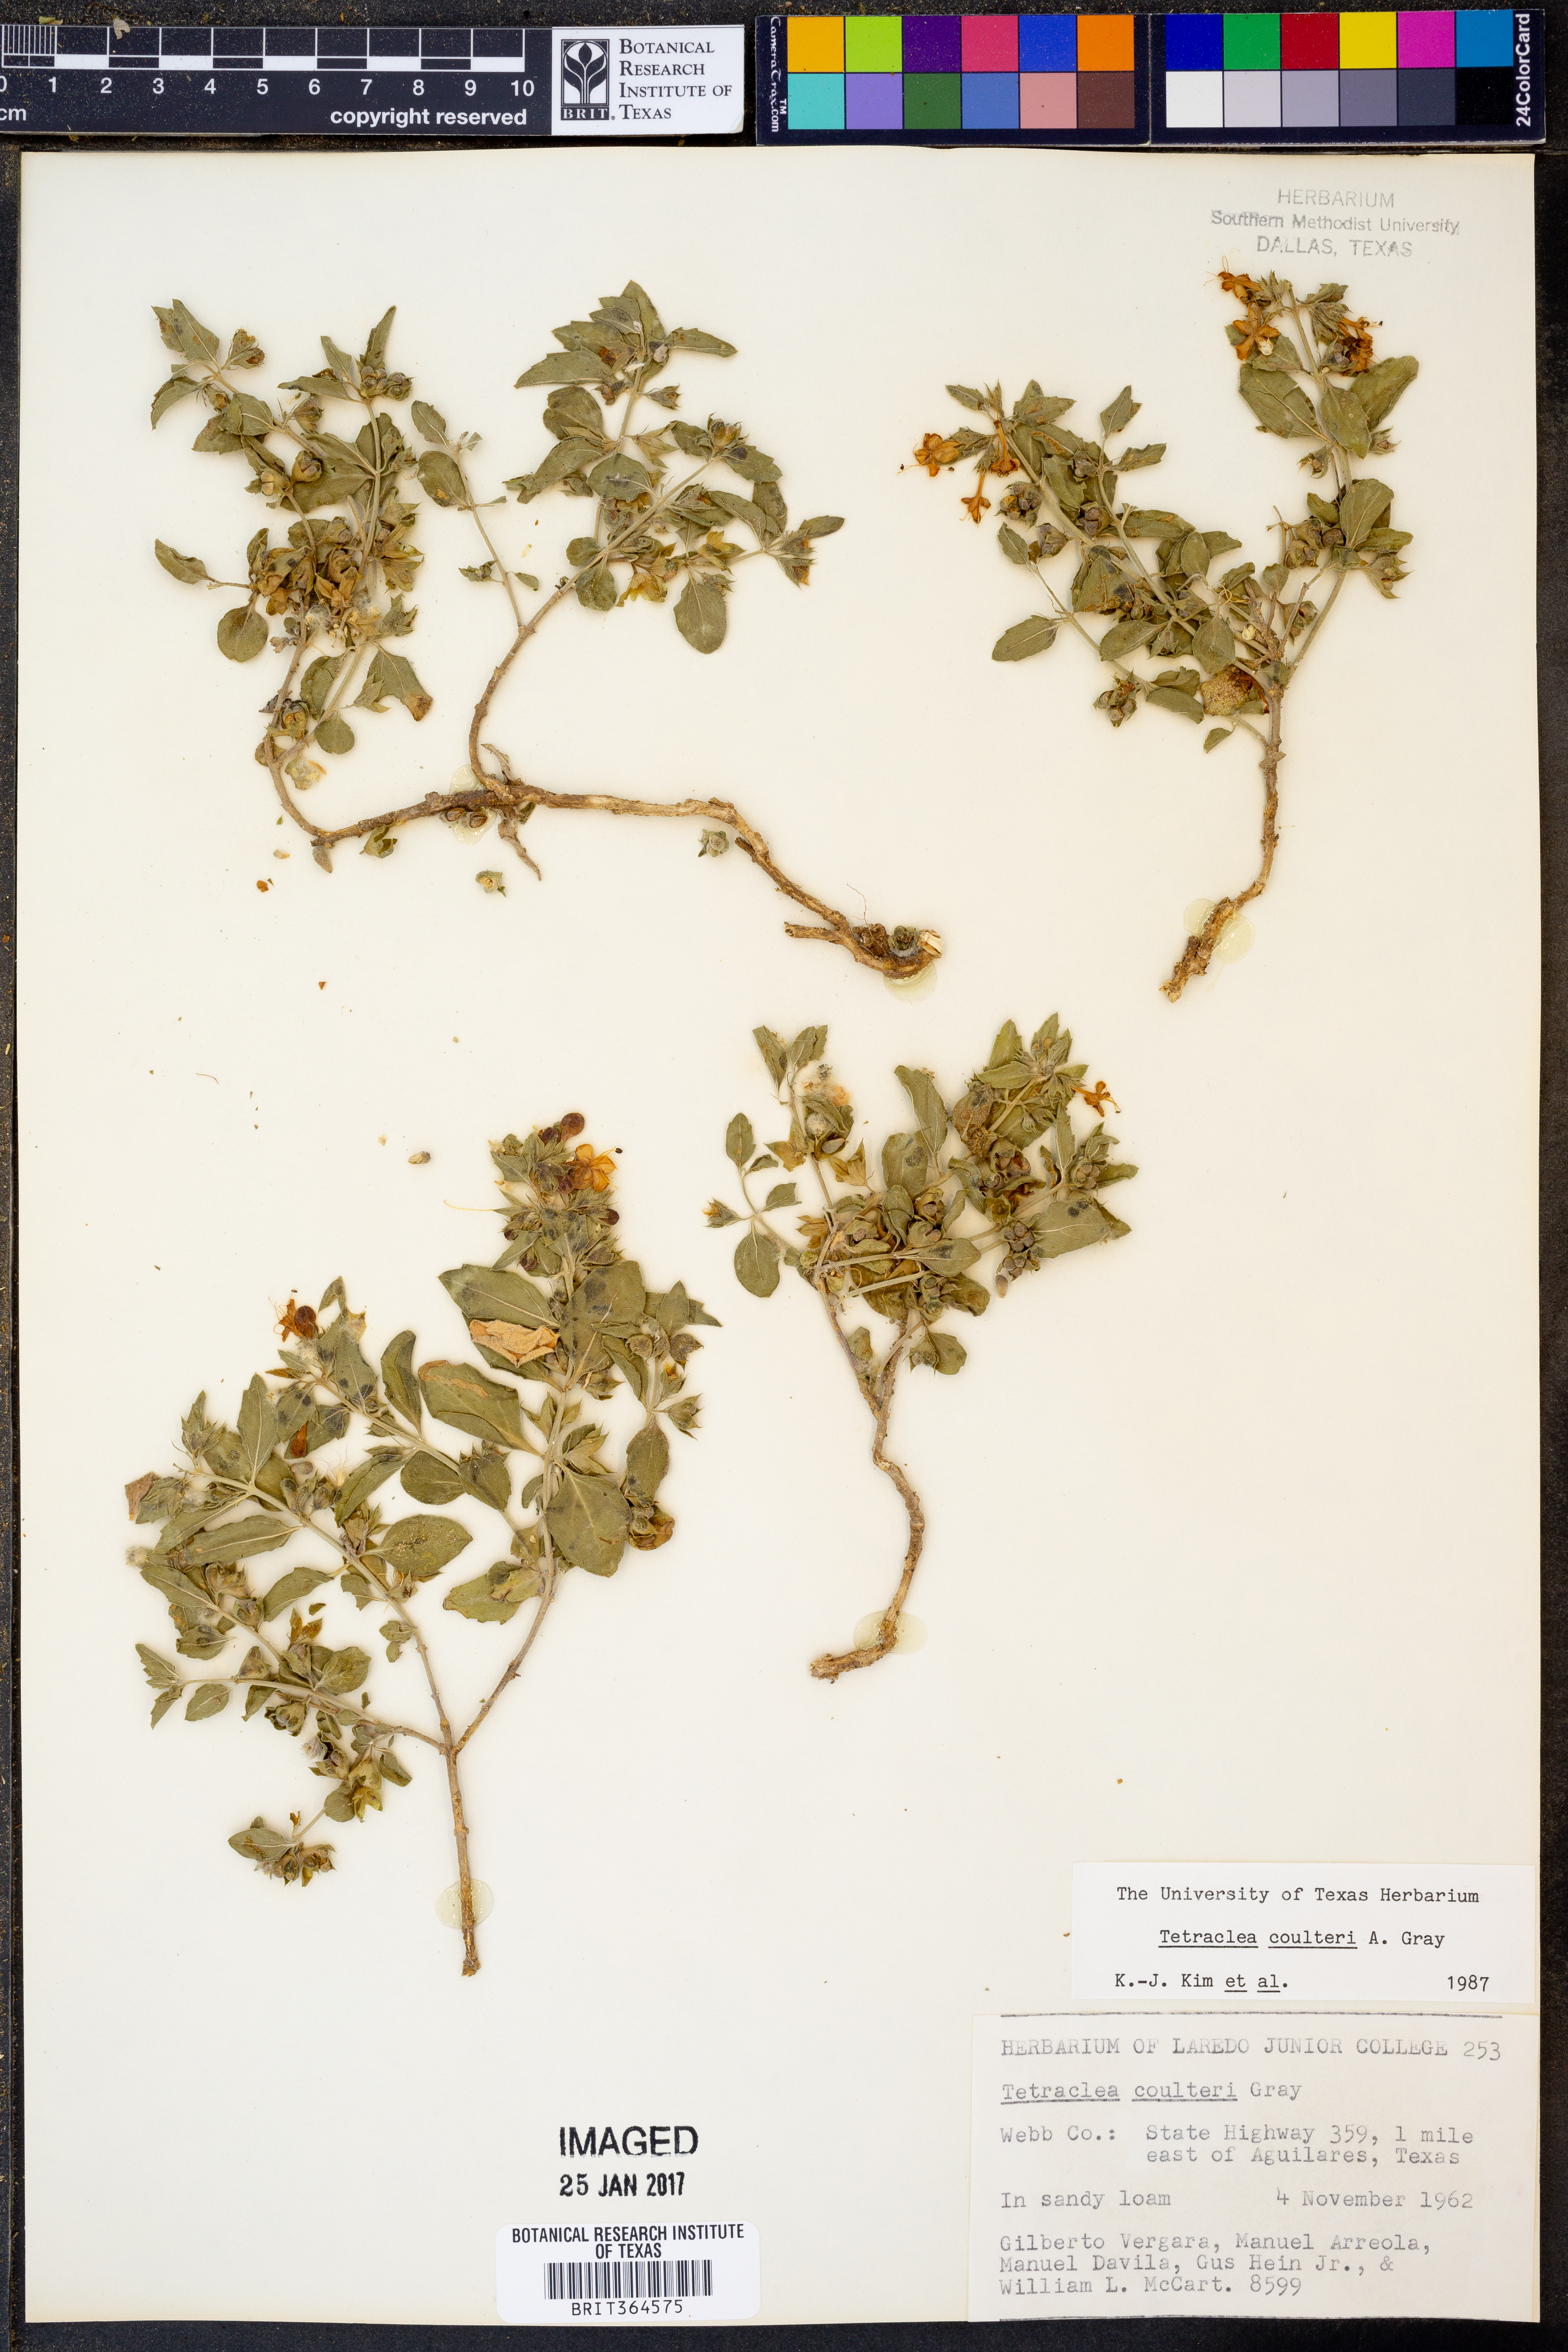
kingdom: Plantae
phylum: Tracheophyta
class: Magnoliopsida
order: Lamiales
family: Lamiaceae
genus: Tetraclea
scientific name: Tetraclea coulteri
